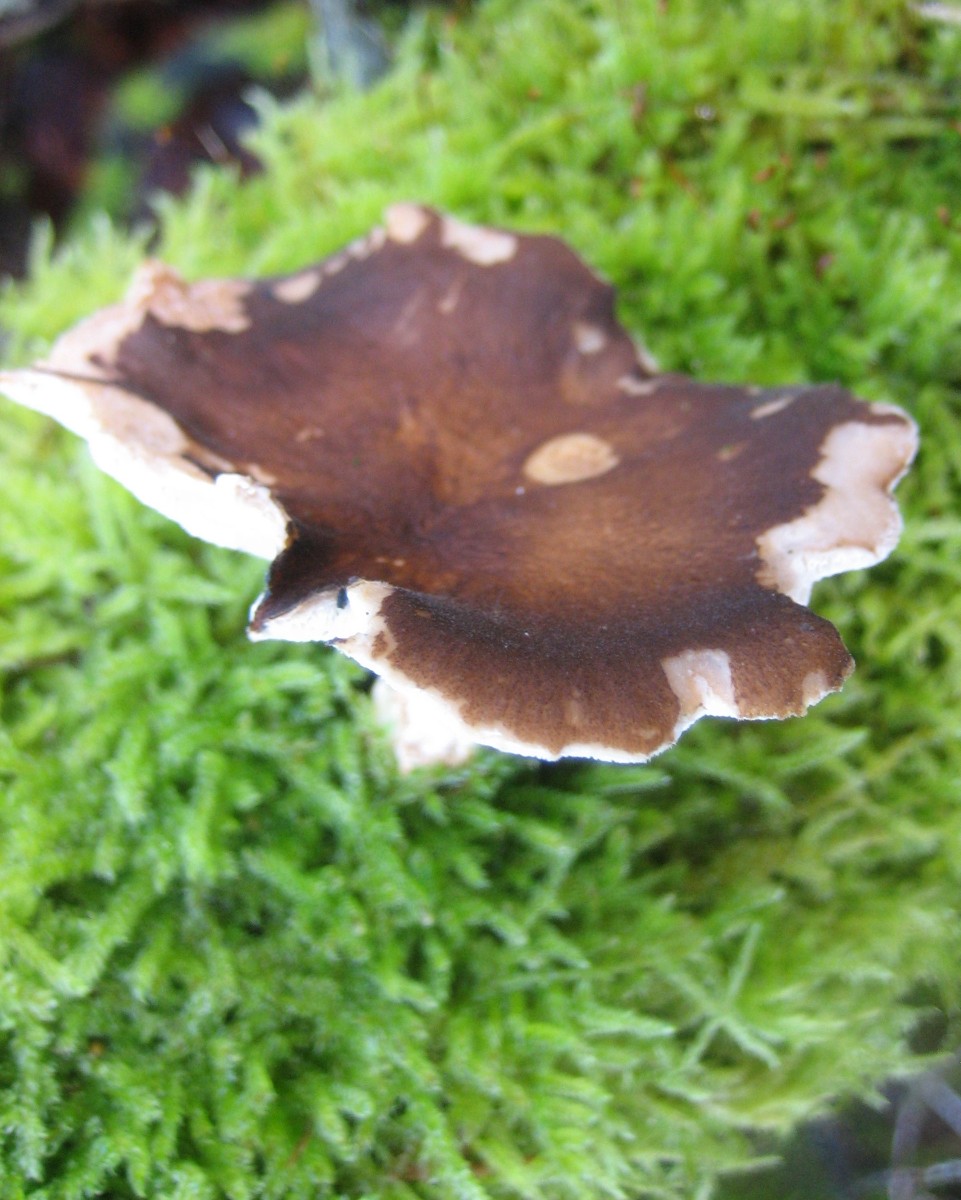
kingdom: Fungi
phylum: Basidiomycota
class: Agaricomycetes
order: Polyporales
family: Polyporaceae
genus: Lentinus
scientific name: Lentinus brumalis
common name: vinter-stilkporesvamp
